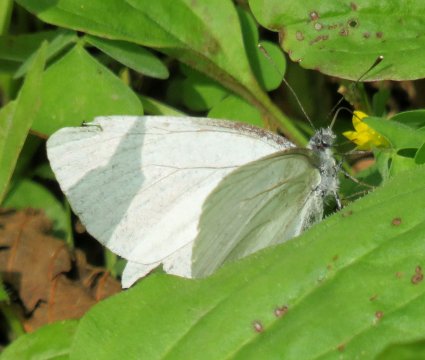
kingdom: Animalia
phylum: Arthropoda
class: Insecta
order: Lepidoptera
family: Pieridae
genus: Pieris
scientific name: Pieris oleracea
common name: Mustard White
